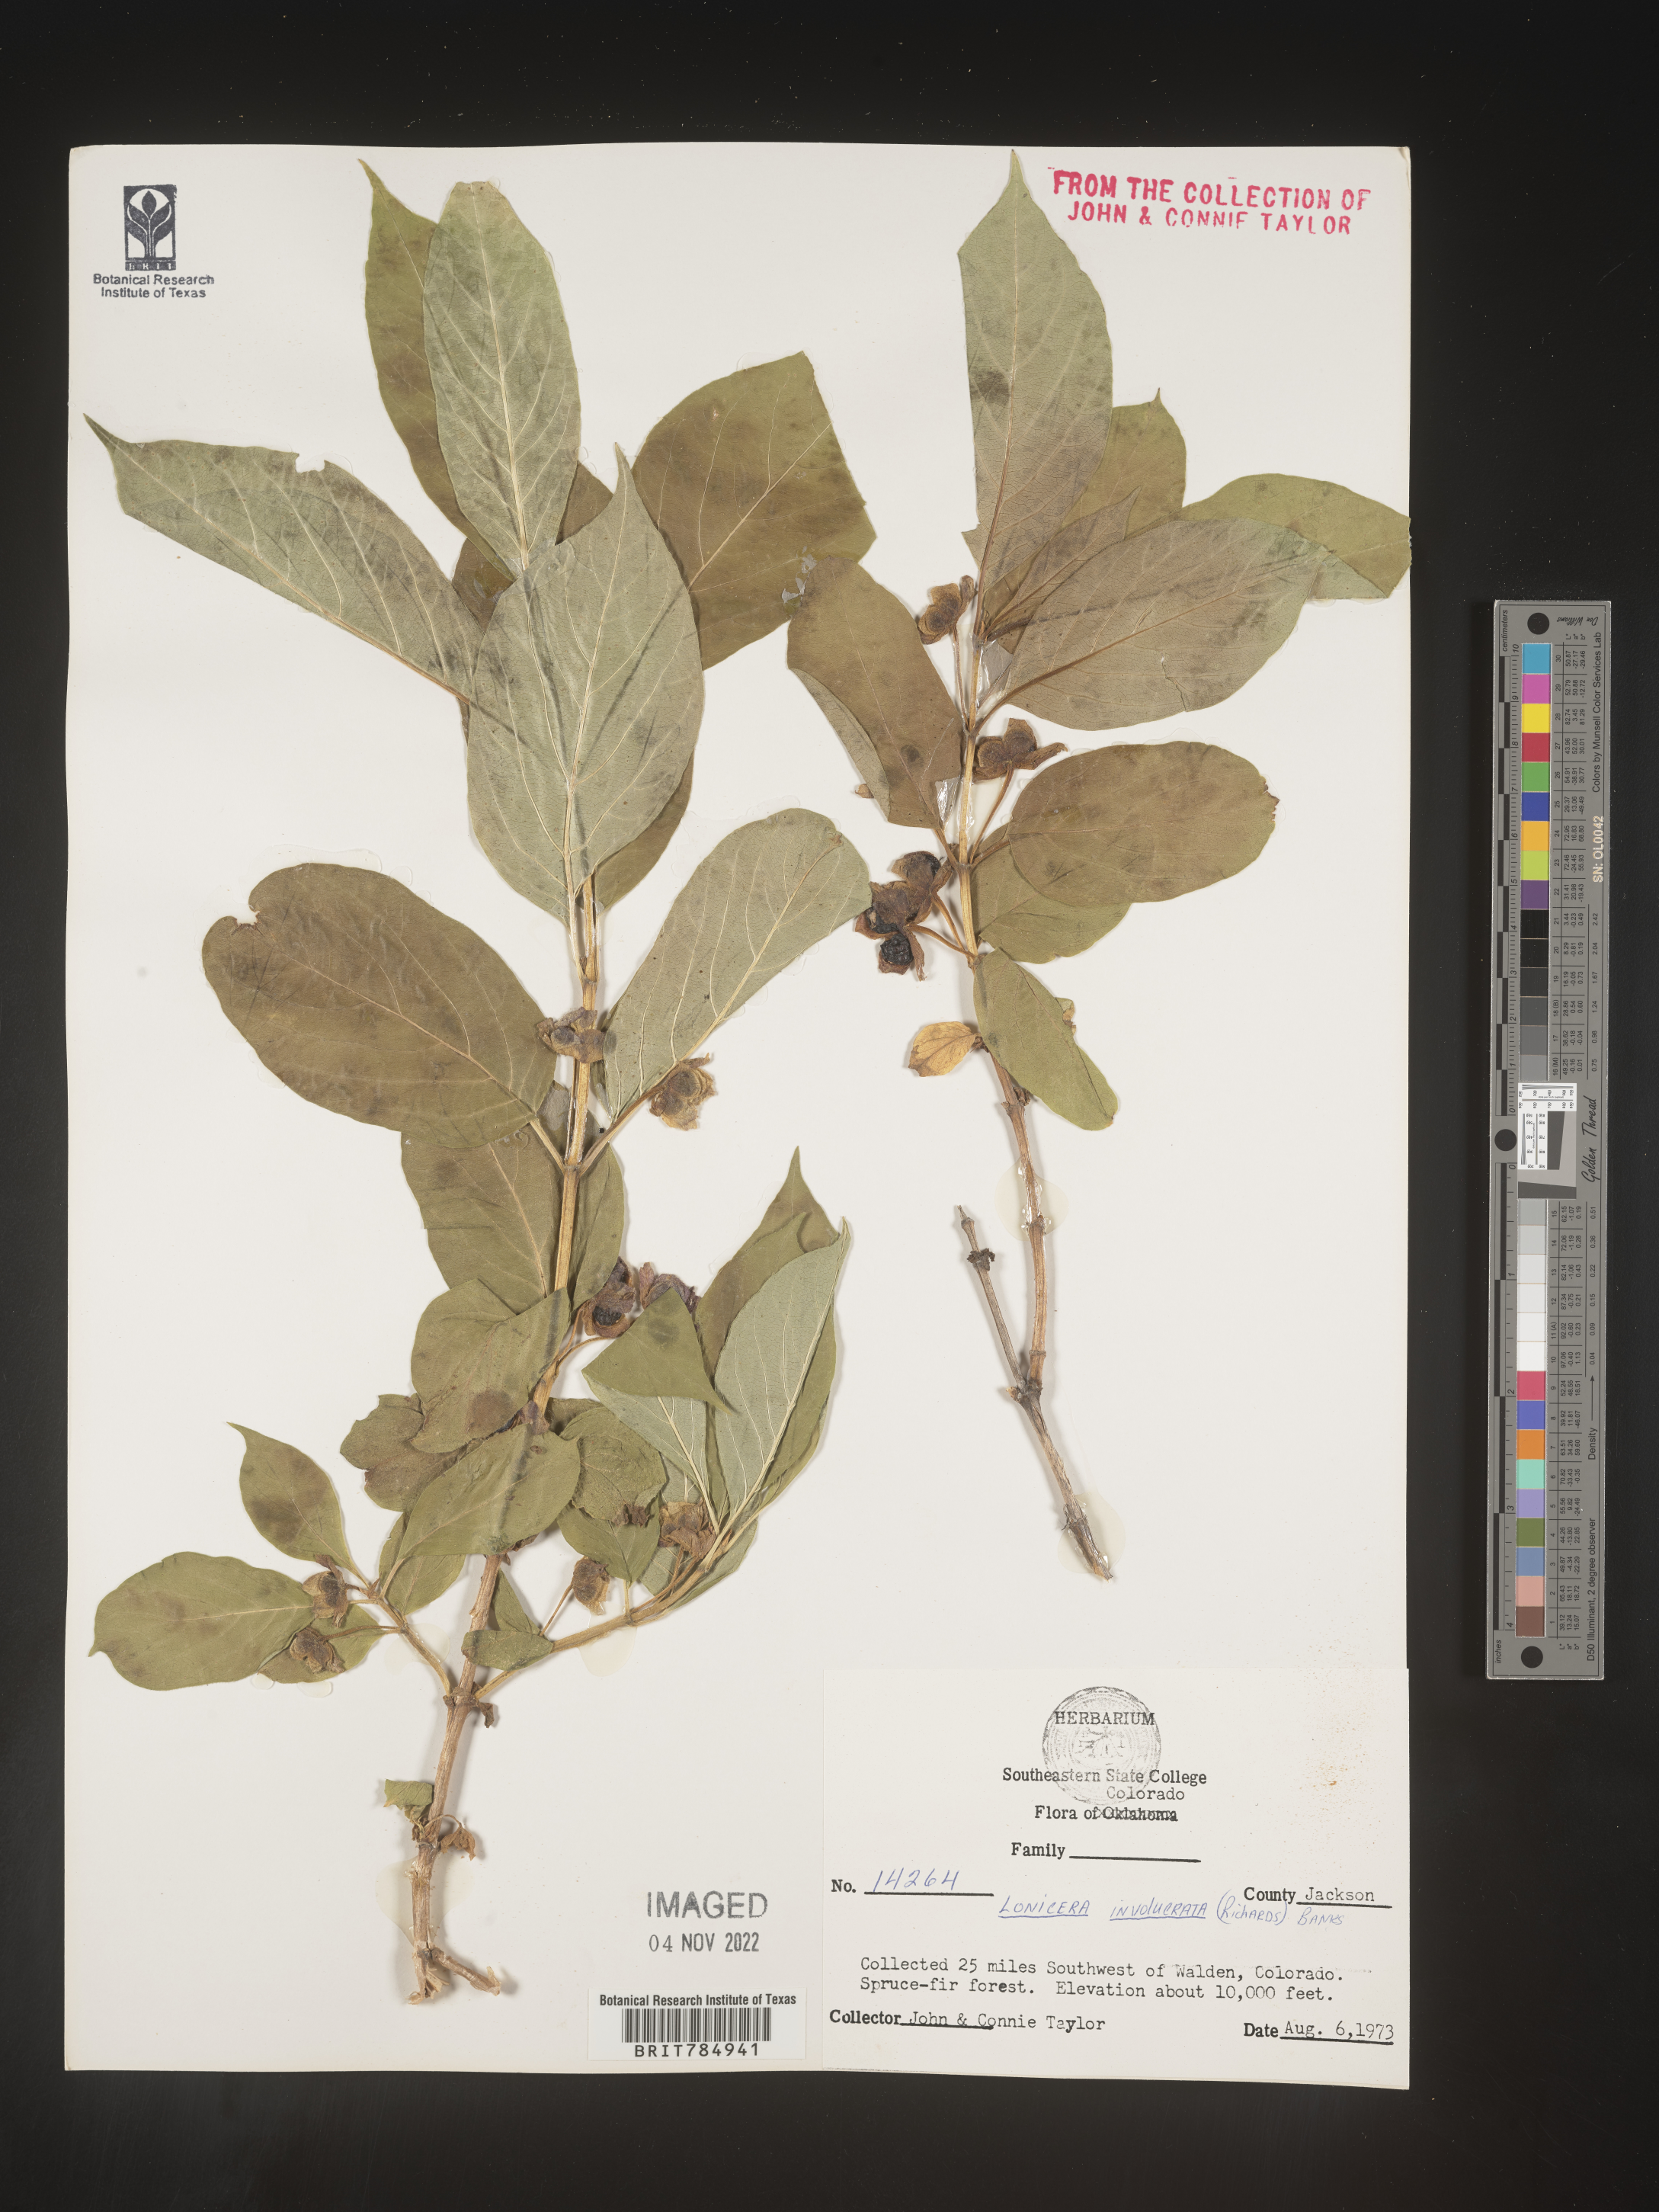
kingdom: Plantae
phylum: Tracheophyta
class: Magnoliopsida
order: Dipsacales
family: Caprifoliaceae
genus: Lonicera
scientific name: Lonicera involucrata
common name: Californian honeysuckle
